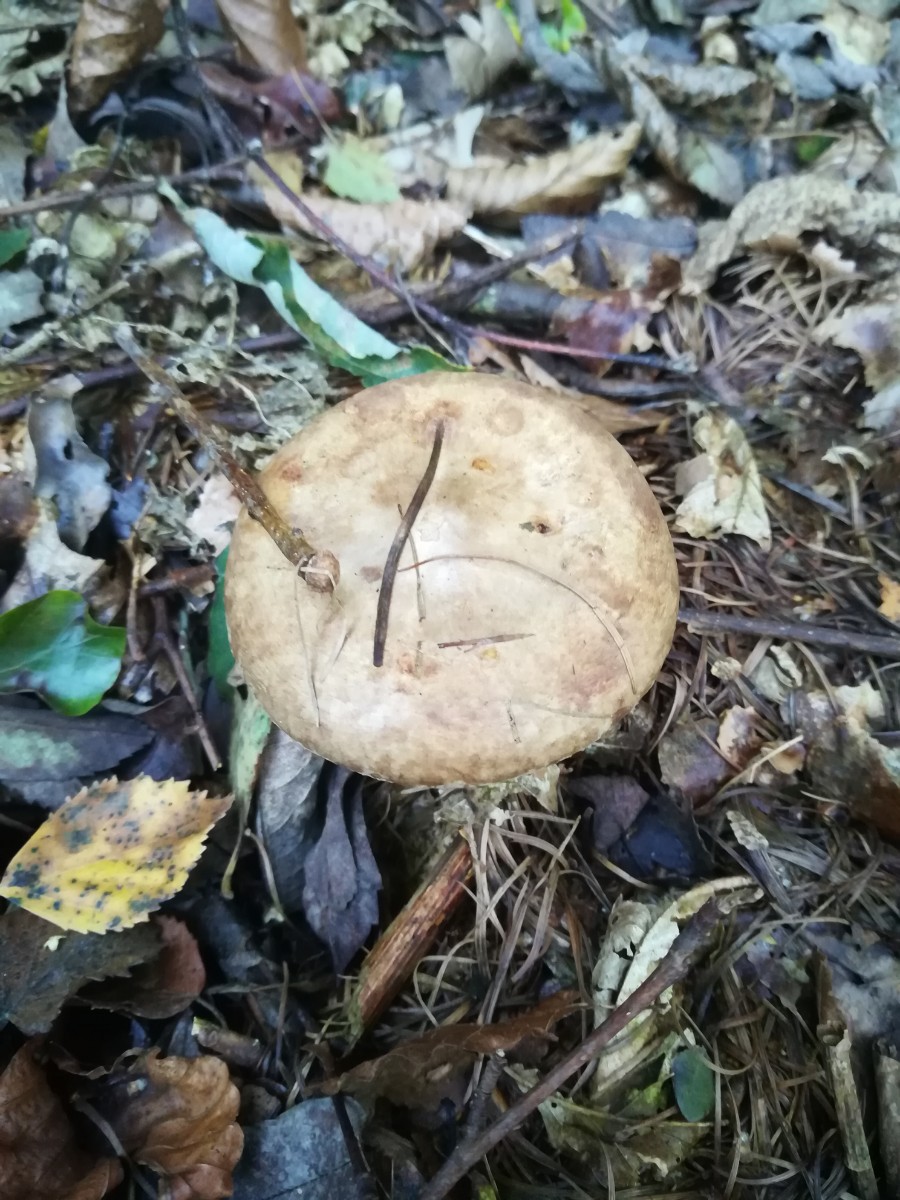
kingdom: Fungi
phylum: Basidiomycota
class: Agaricomycetes
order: Boletales
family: Paxillaceae
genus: Paxillus
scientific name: Paxillus
